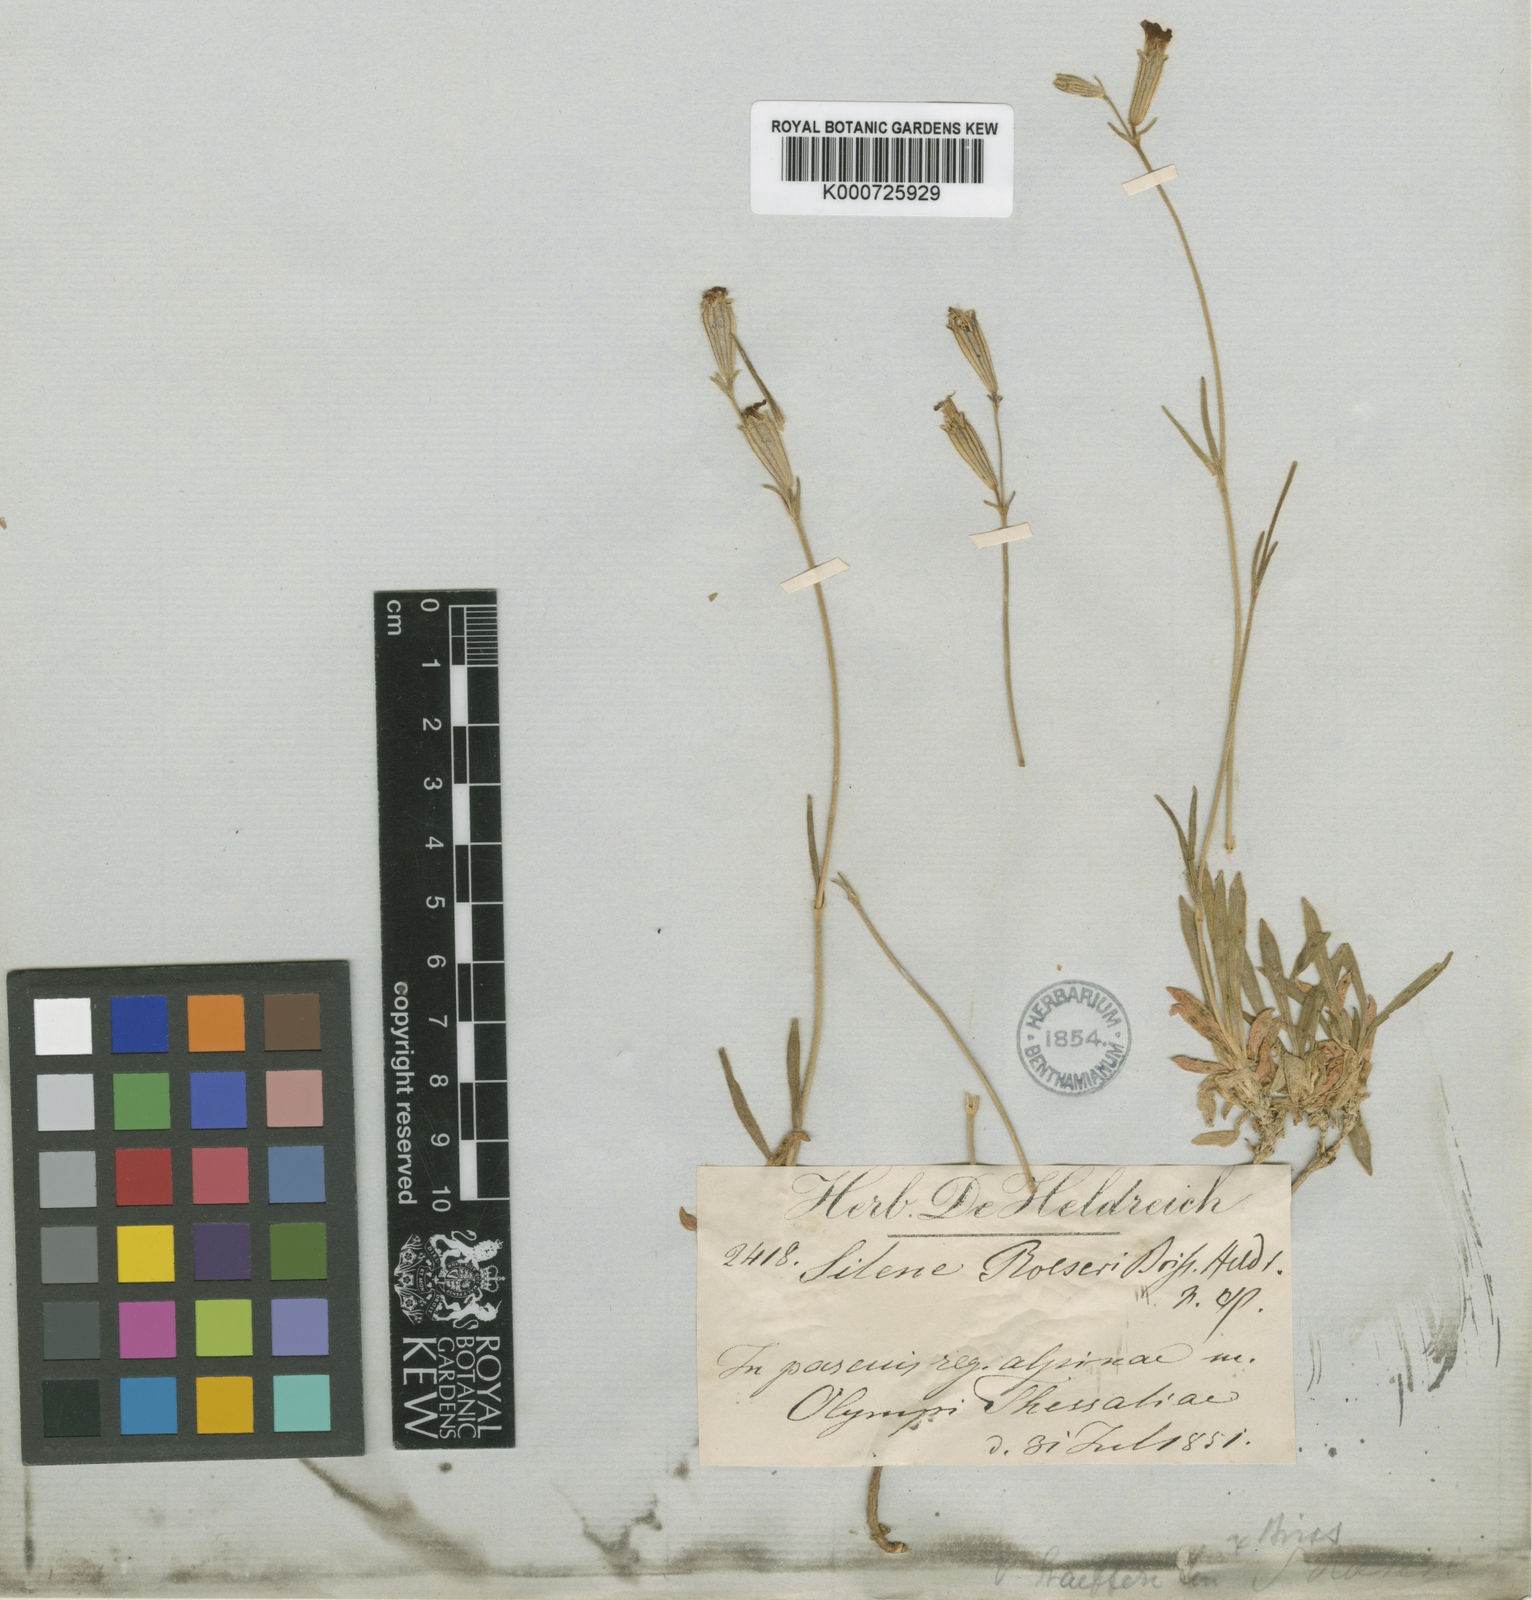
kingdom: Plantae
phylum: Tracheophyta
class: Magnoliopsida
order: Caryophyllales
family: Caryophyllaceae
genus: Silene
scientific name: Silene ciliata
